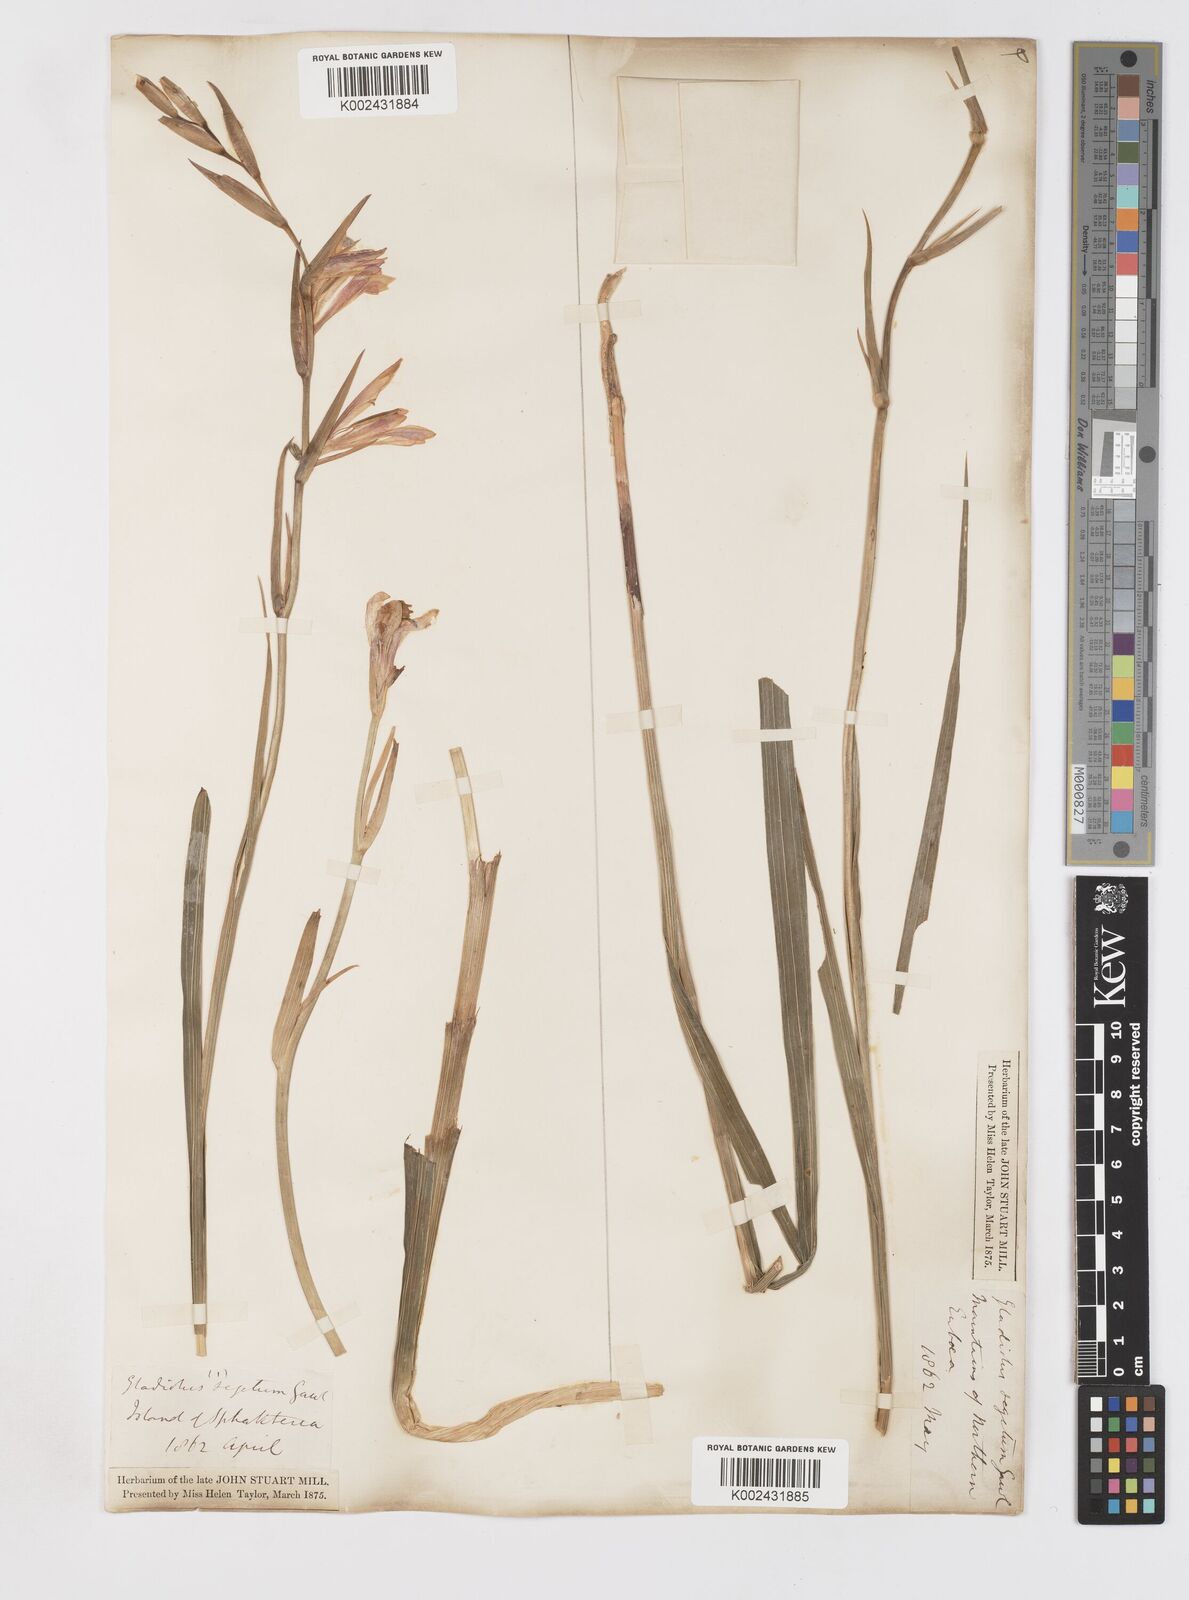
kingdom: Plantae
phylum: Tracheophyta
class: Liliopsida
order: Asparagales
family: Iridaceae
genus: Gladiolus
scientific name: Gladiolus italicus
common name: Field gladiolus
